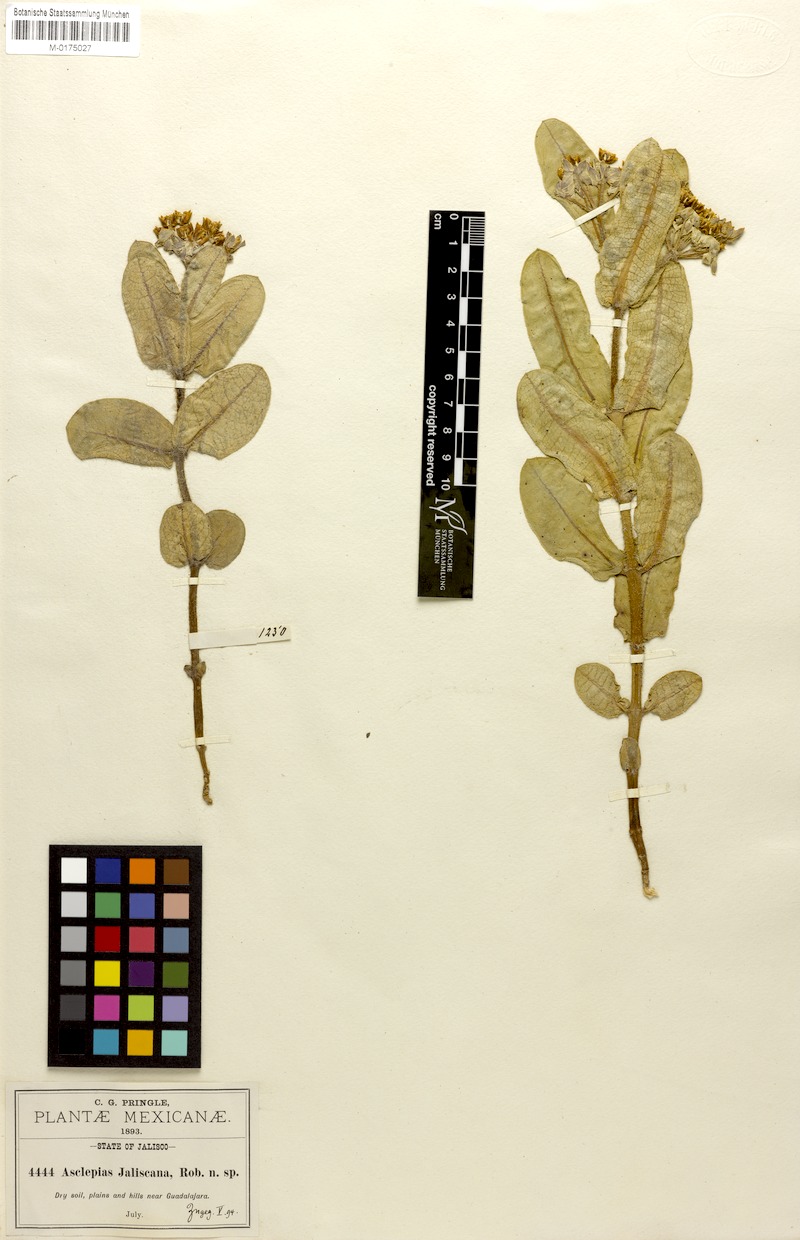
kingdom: Plantae
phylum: Tracheophyta
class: Magnoliopsida
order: Gentianales
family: Apocynaceae
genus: Asclepias
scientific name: Asclepias jaliscana
